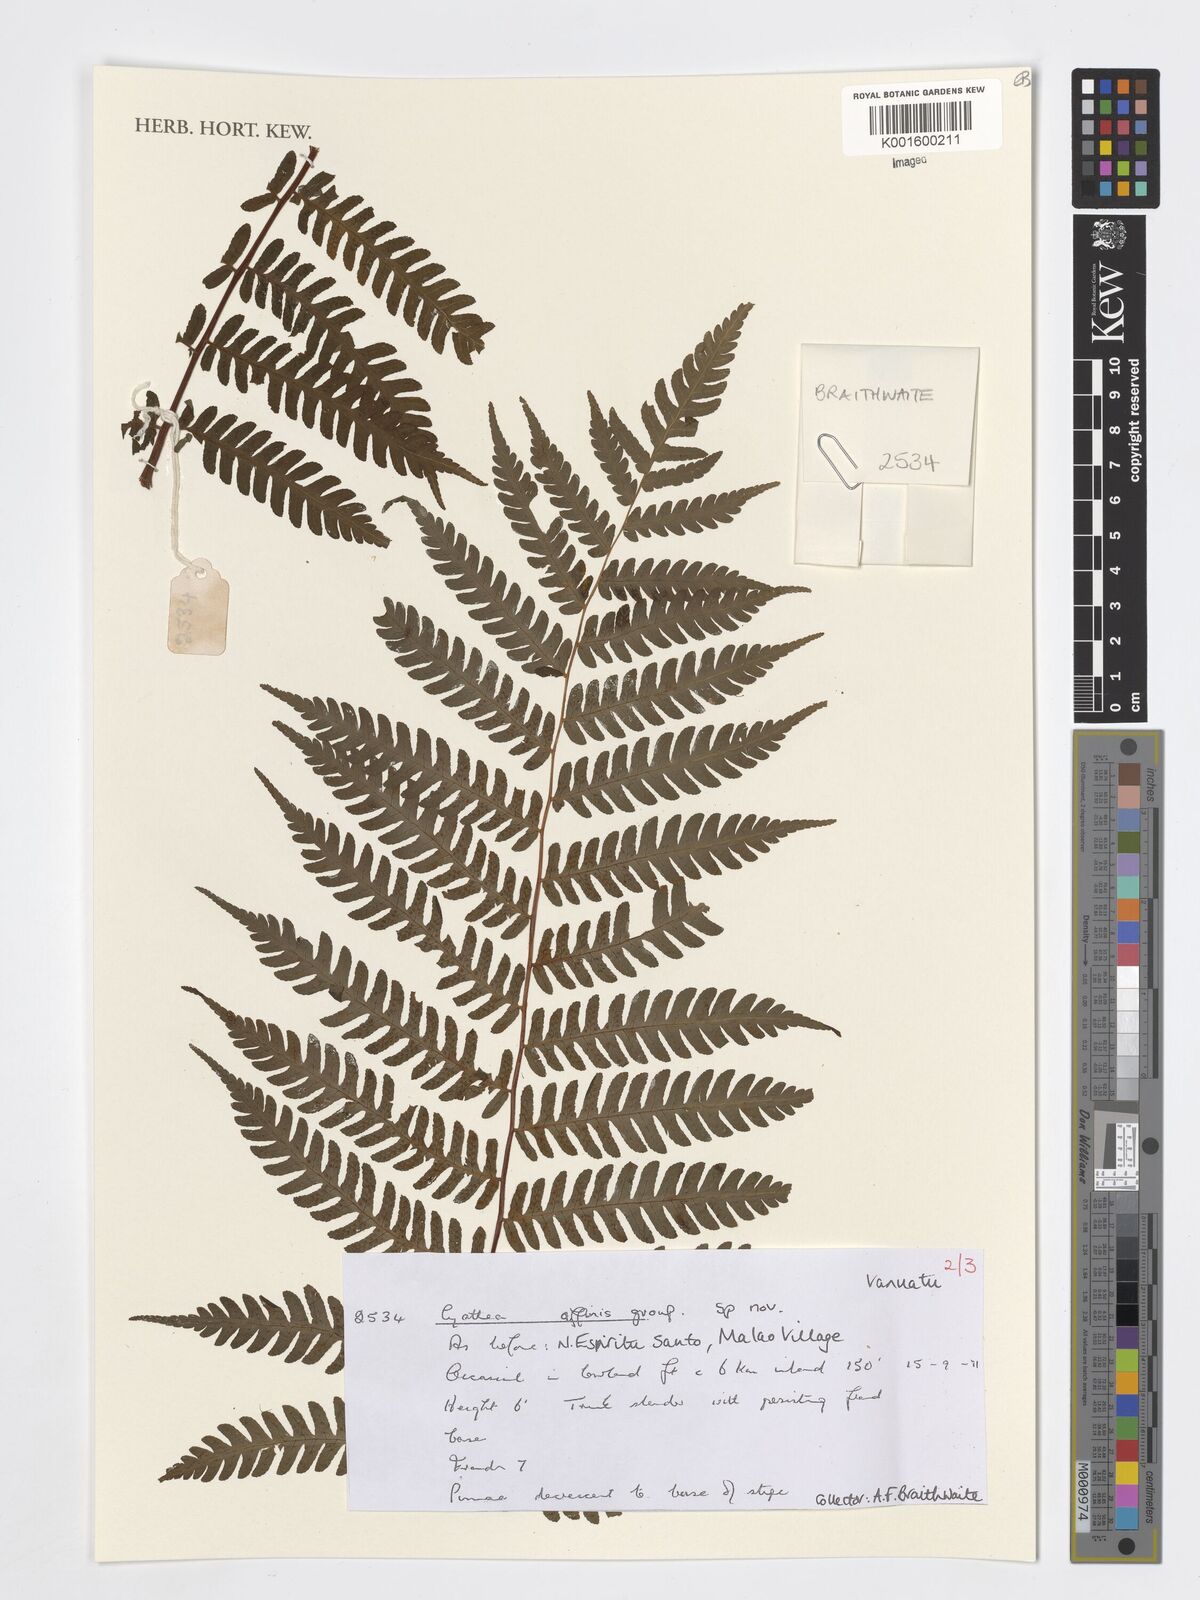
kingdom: Plantae
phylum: Tracheophyta
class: Polypodiopsida
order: Cyatheales
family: Cyatheaceae
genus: Cyathea
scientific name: Cyathea
